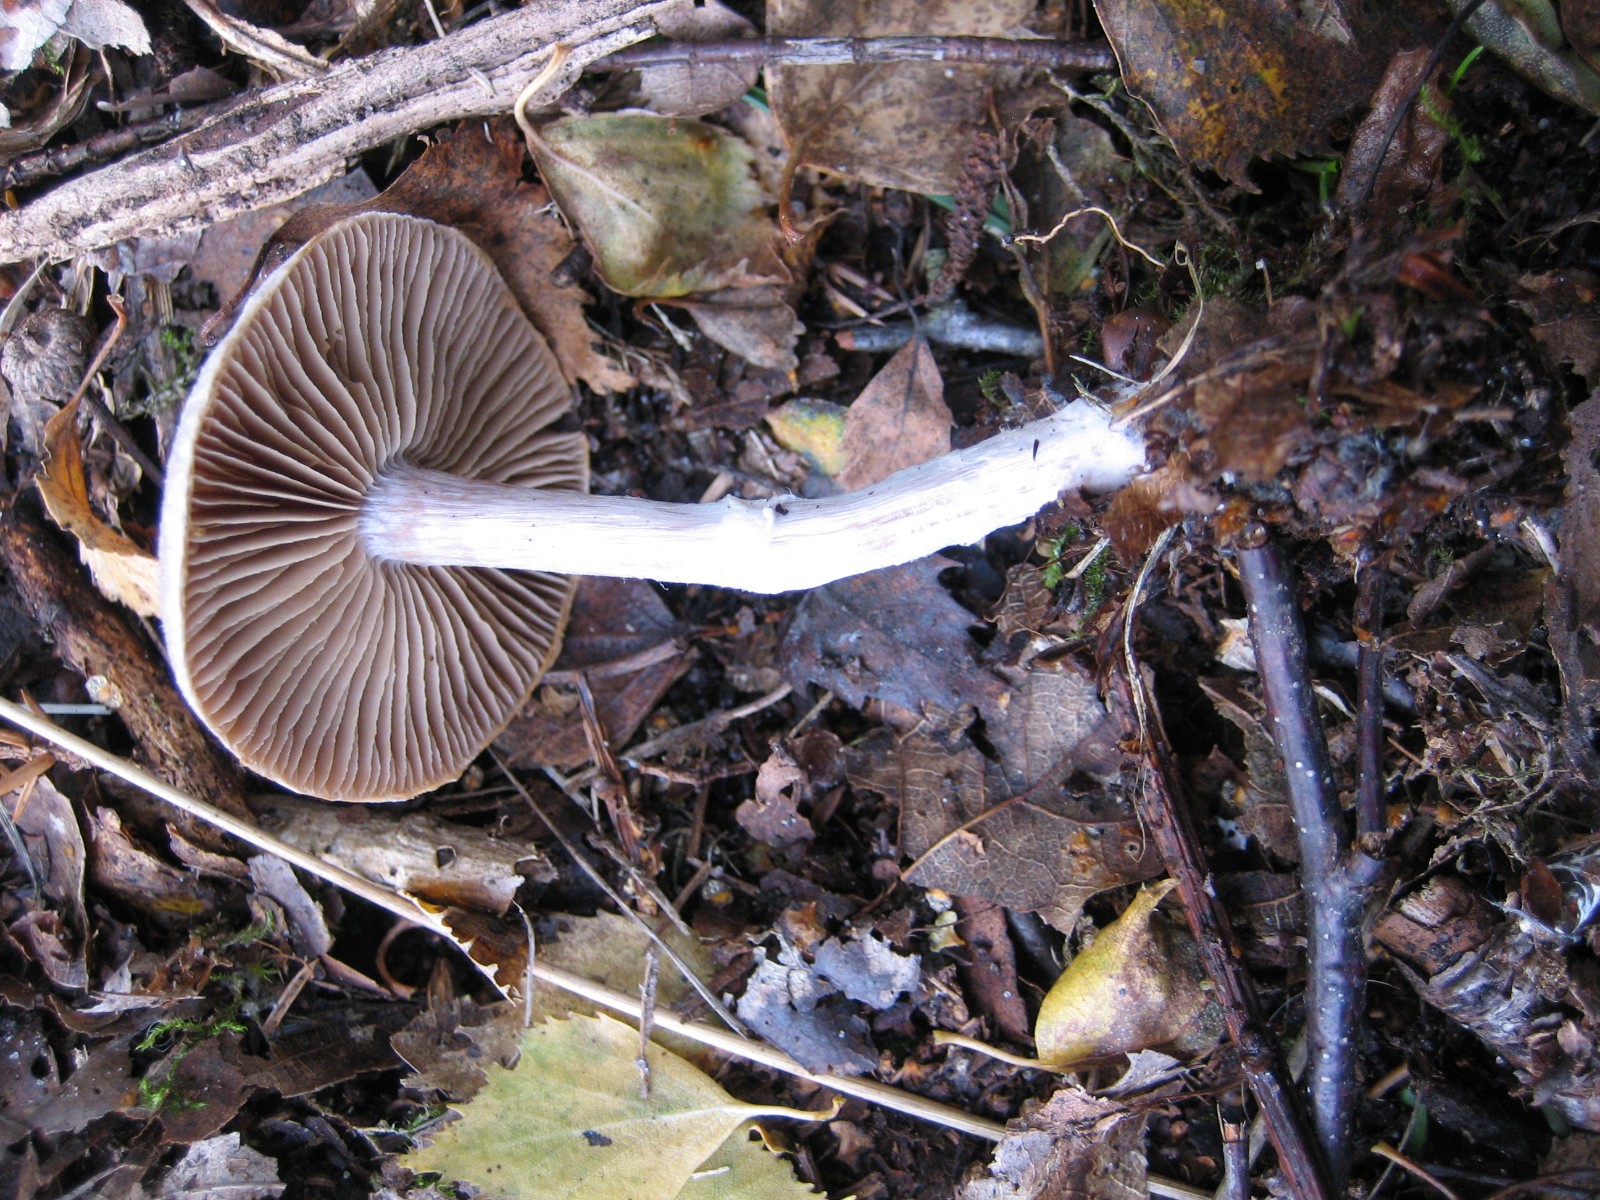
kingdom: Fungi
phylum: Basidiomycota
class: Agaricomycetes
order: Agaricales
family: Cortinariaceae
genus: Cortinarius
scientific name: Cortinarius hemitrichus
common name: hvidfnugget slørhat
